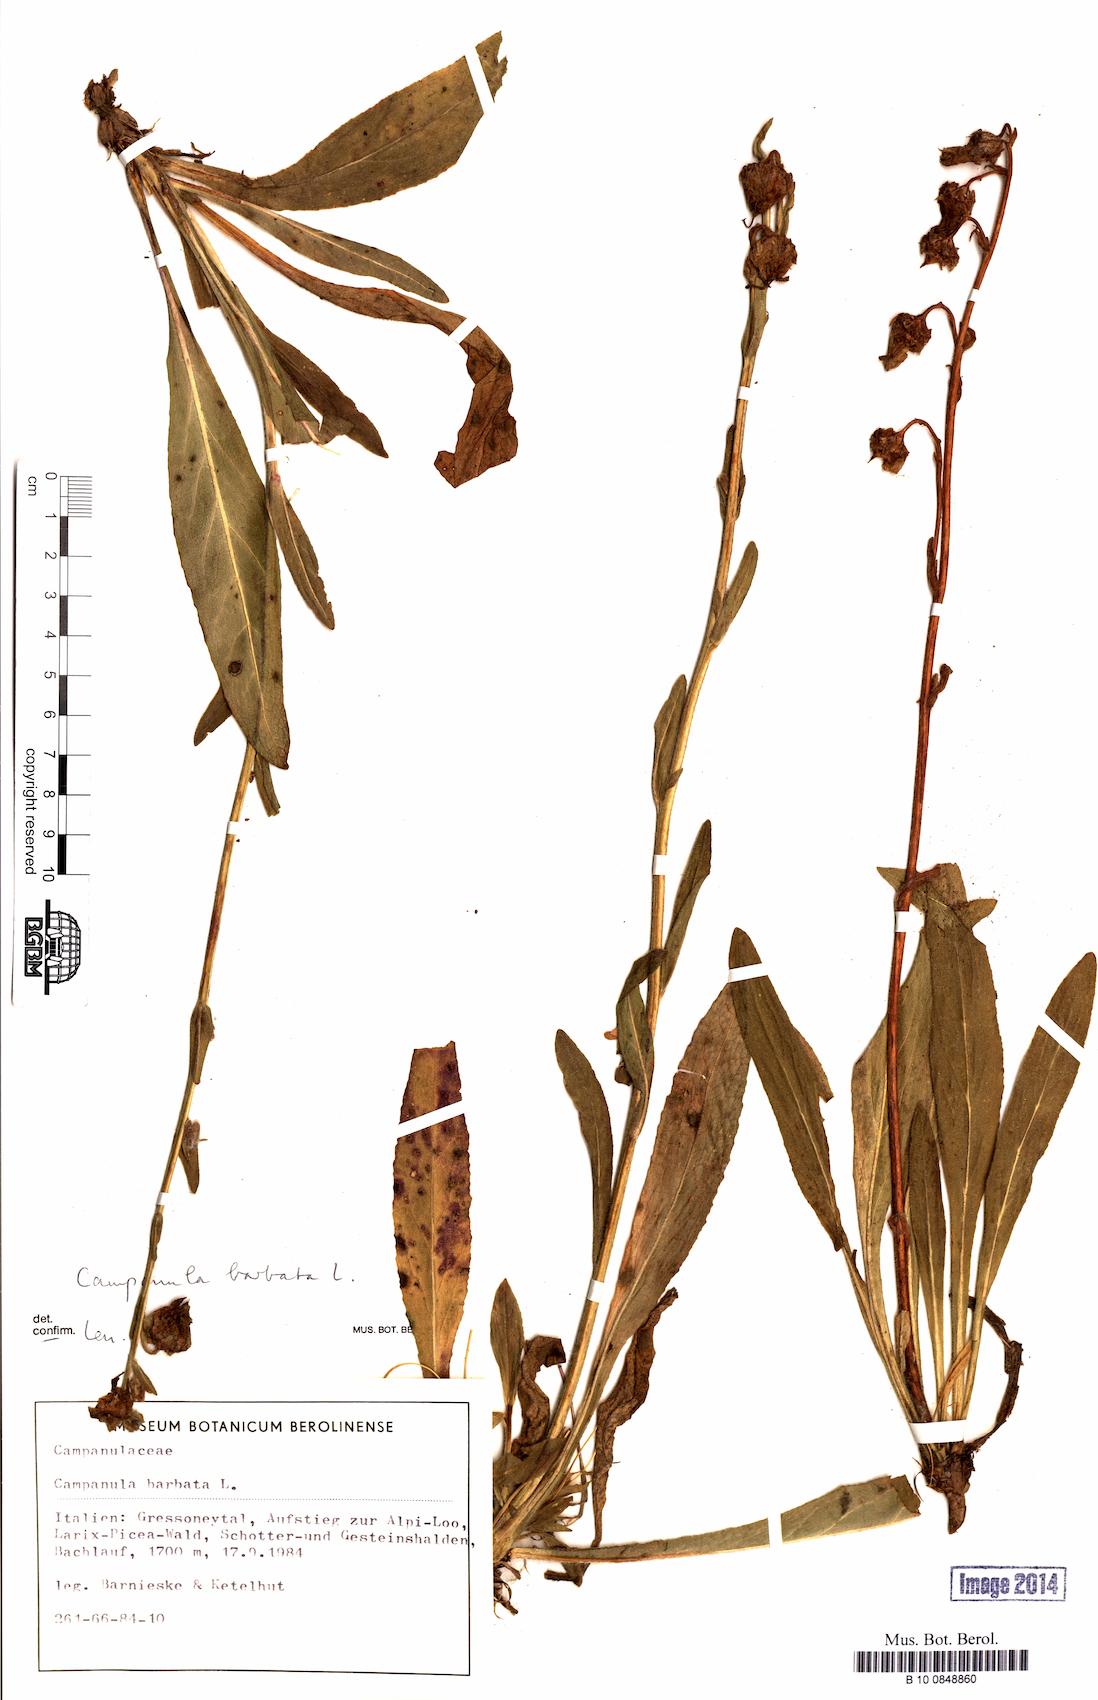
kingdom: Plantae
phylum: Tracheophyta
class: Magnoliopsida
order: Asterales
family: Campanulaceae
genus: Campanula
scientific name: Campanula barbata
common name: Bearded bellflower
